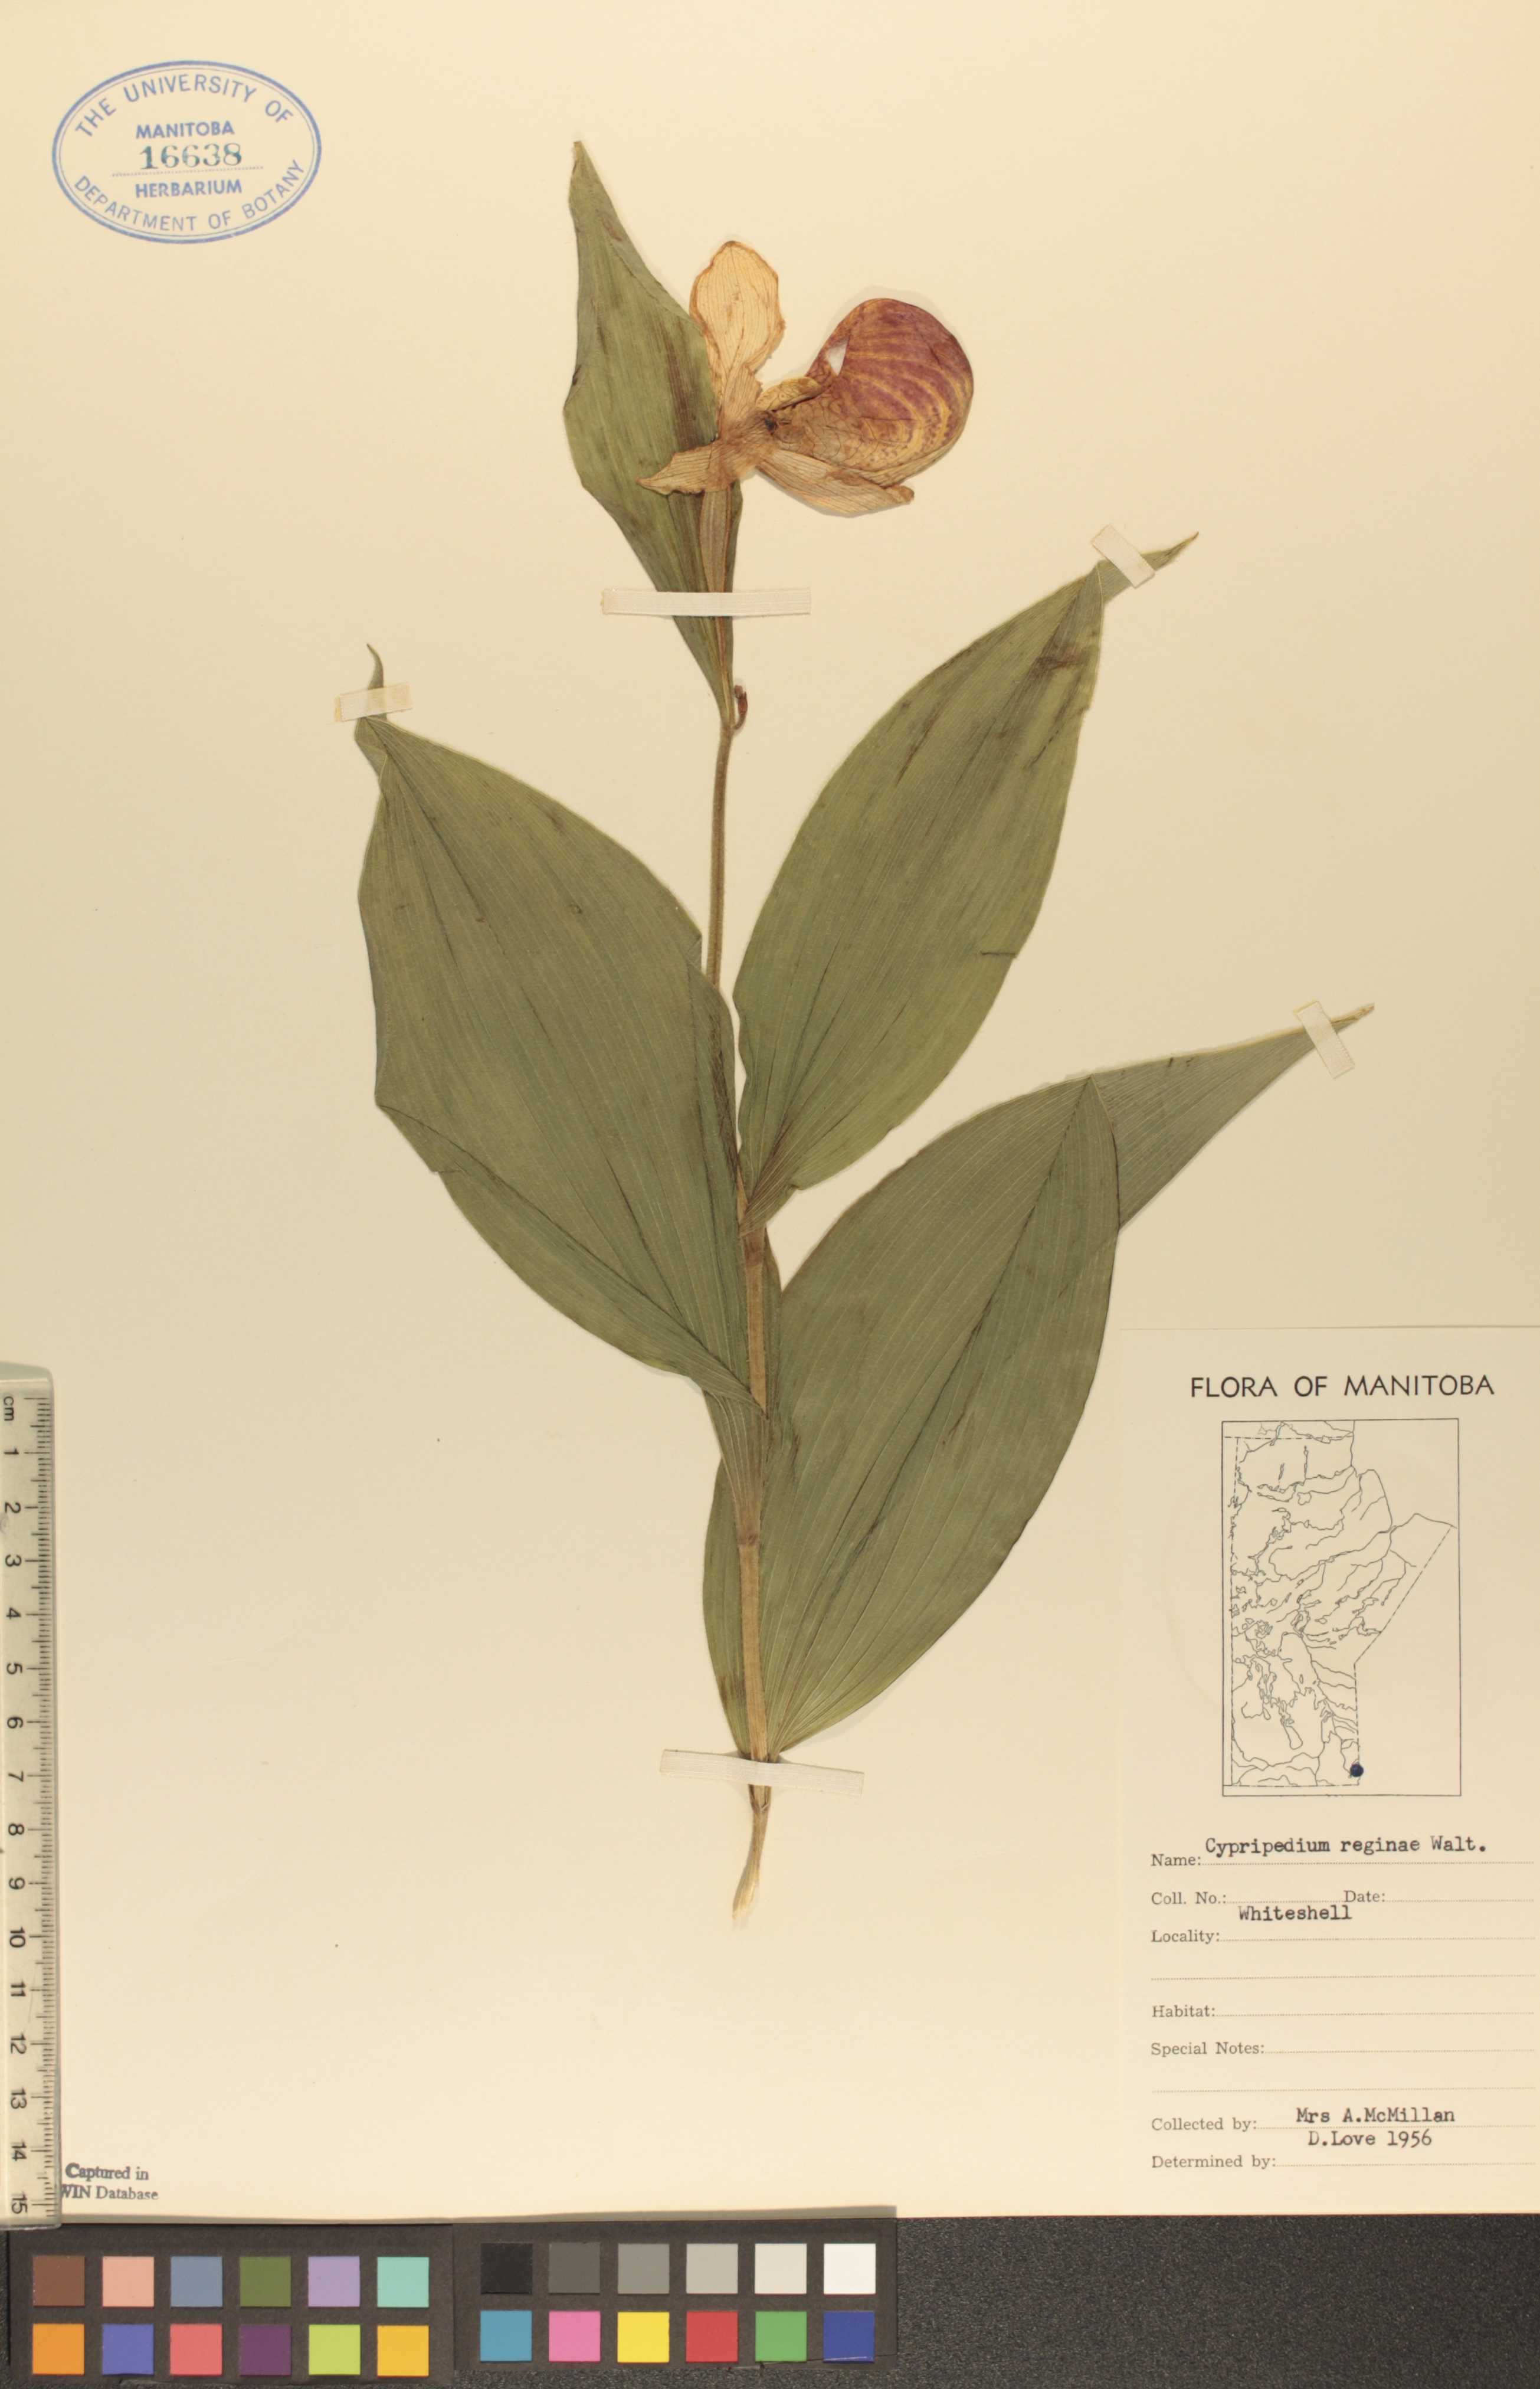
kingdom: Plantae
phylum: Tracheophyta
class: Liliopsida
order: Asparagales
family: Orchidaceae
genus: Cypripedium
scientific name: Cypripedium reginae
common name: Queen lady's-slipper
